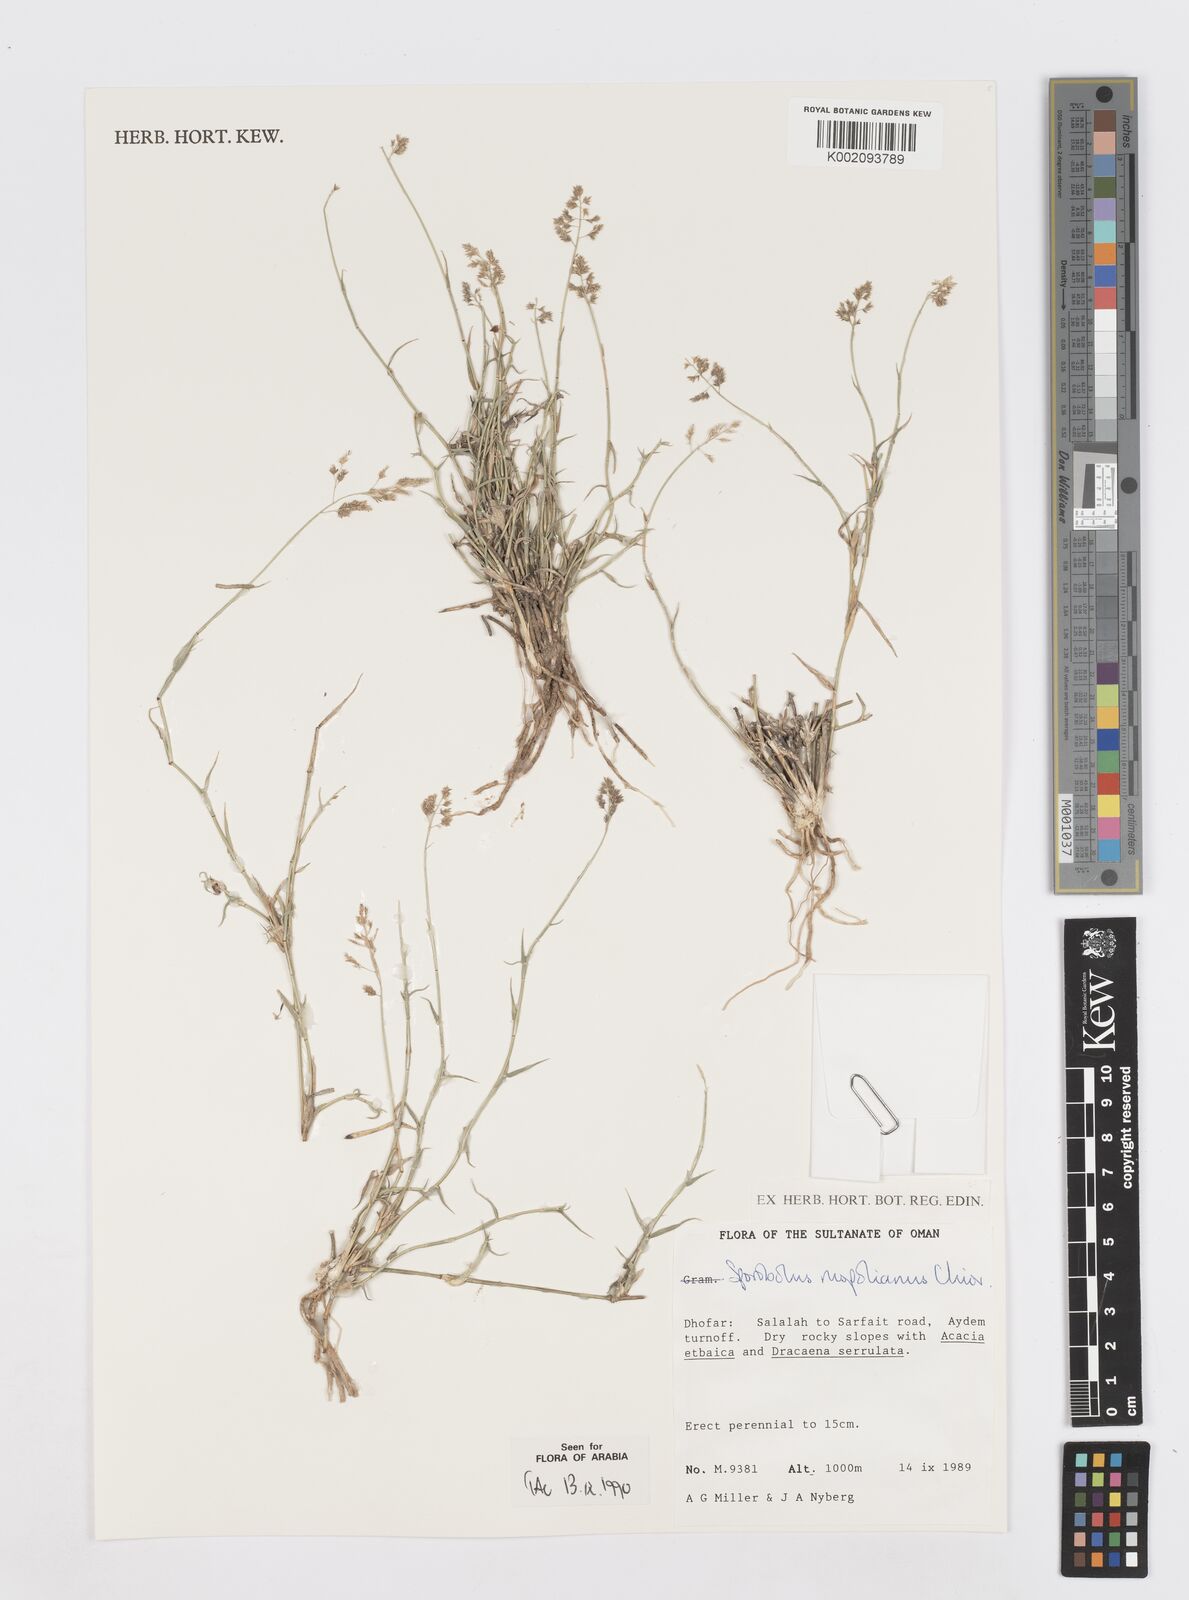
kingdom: Plantae
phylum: Tracheophyta
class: Liliopsida
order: Poales
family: Poaceae
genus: Sporobolus
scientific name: Sporobolus ruspolianus
